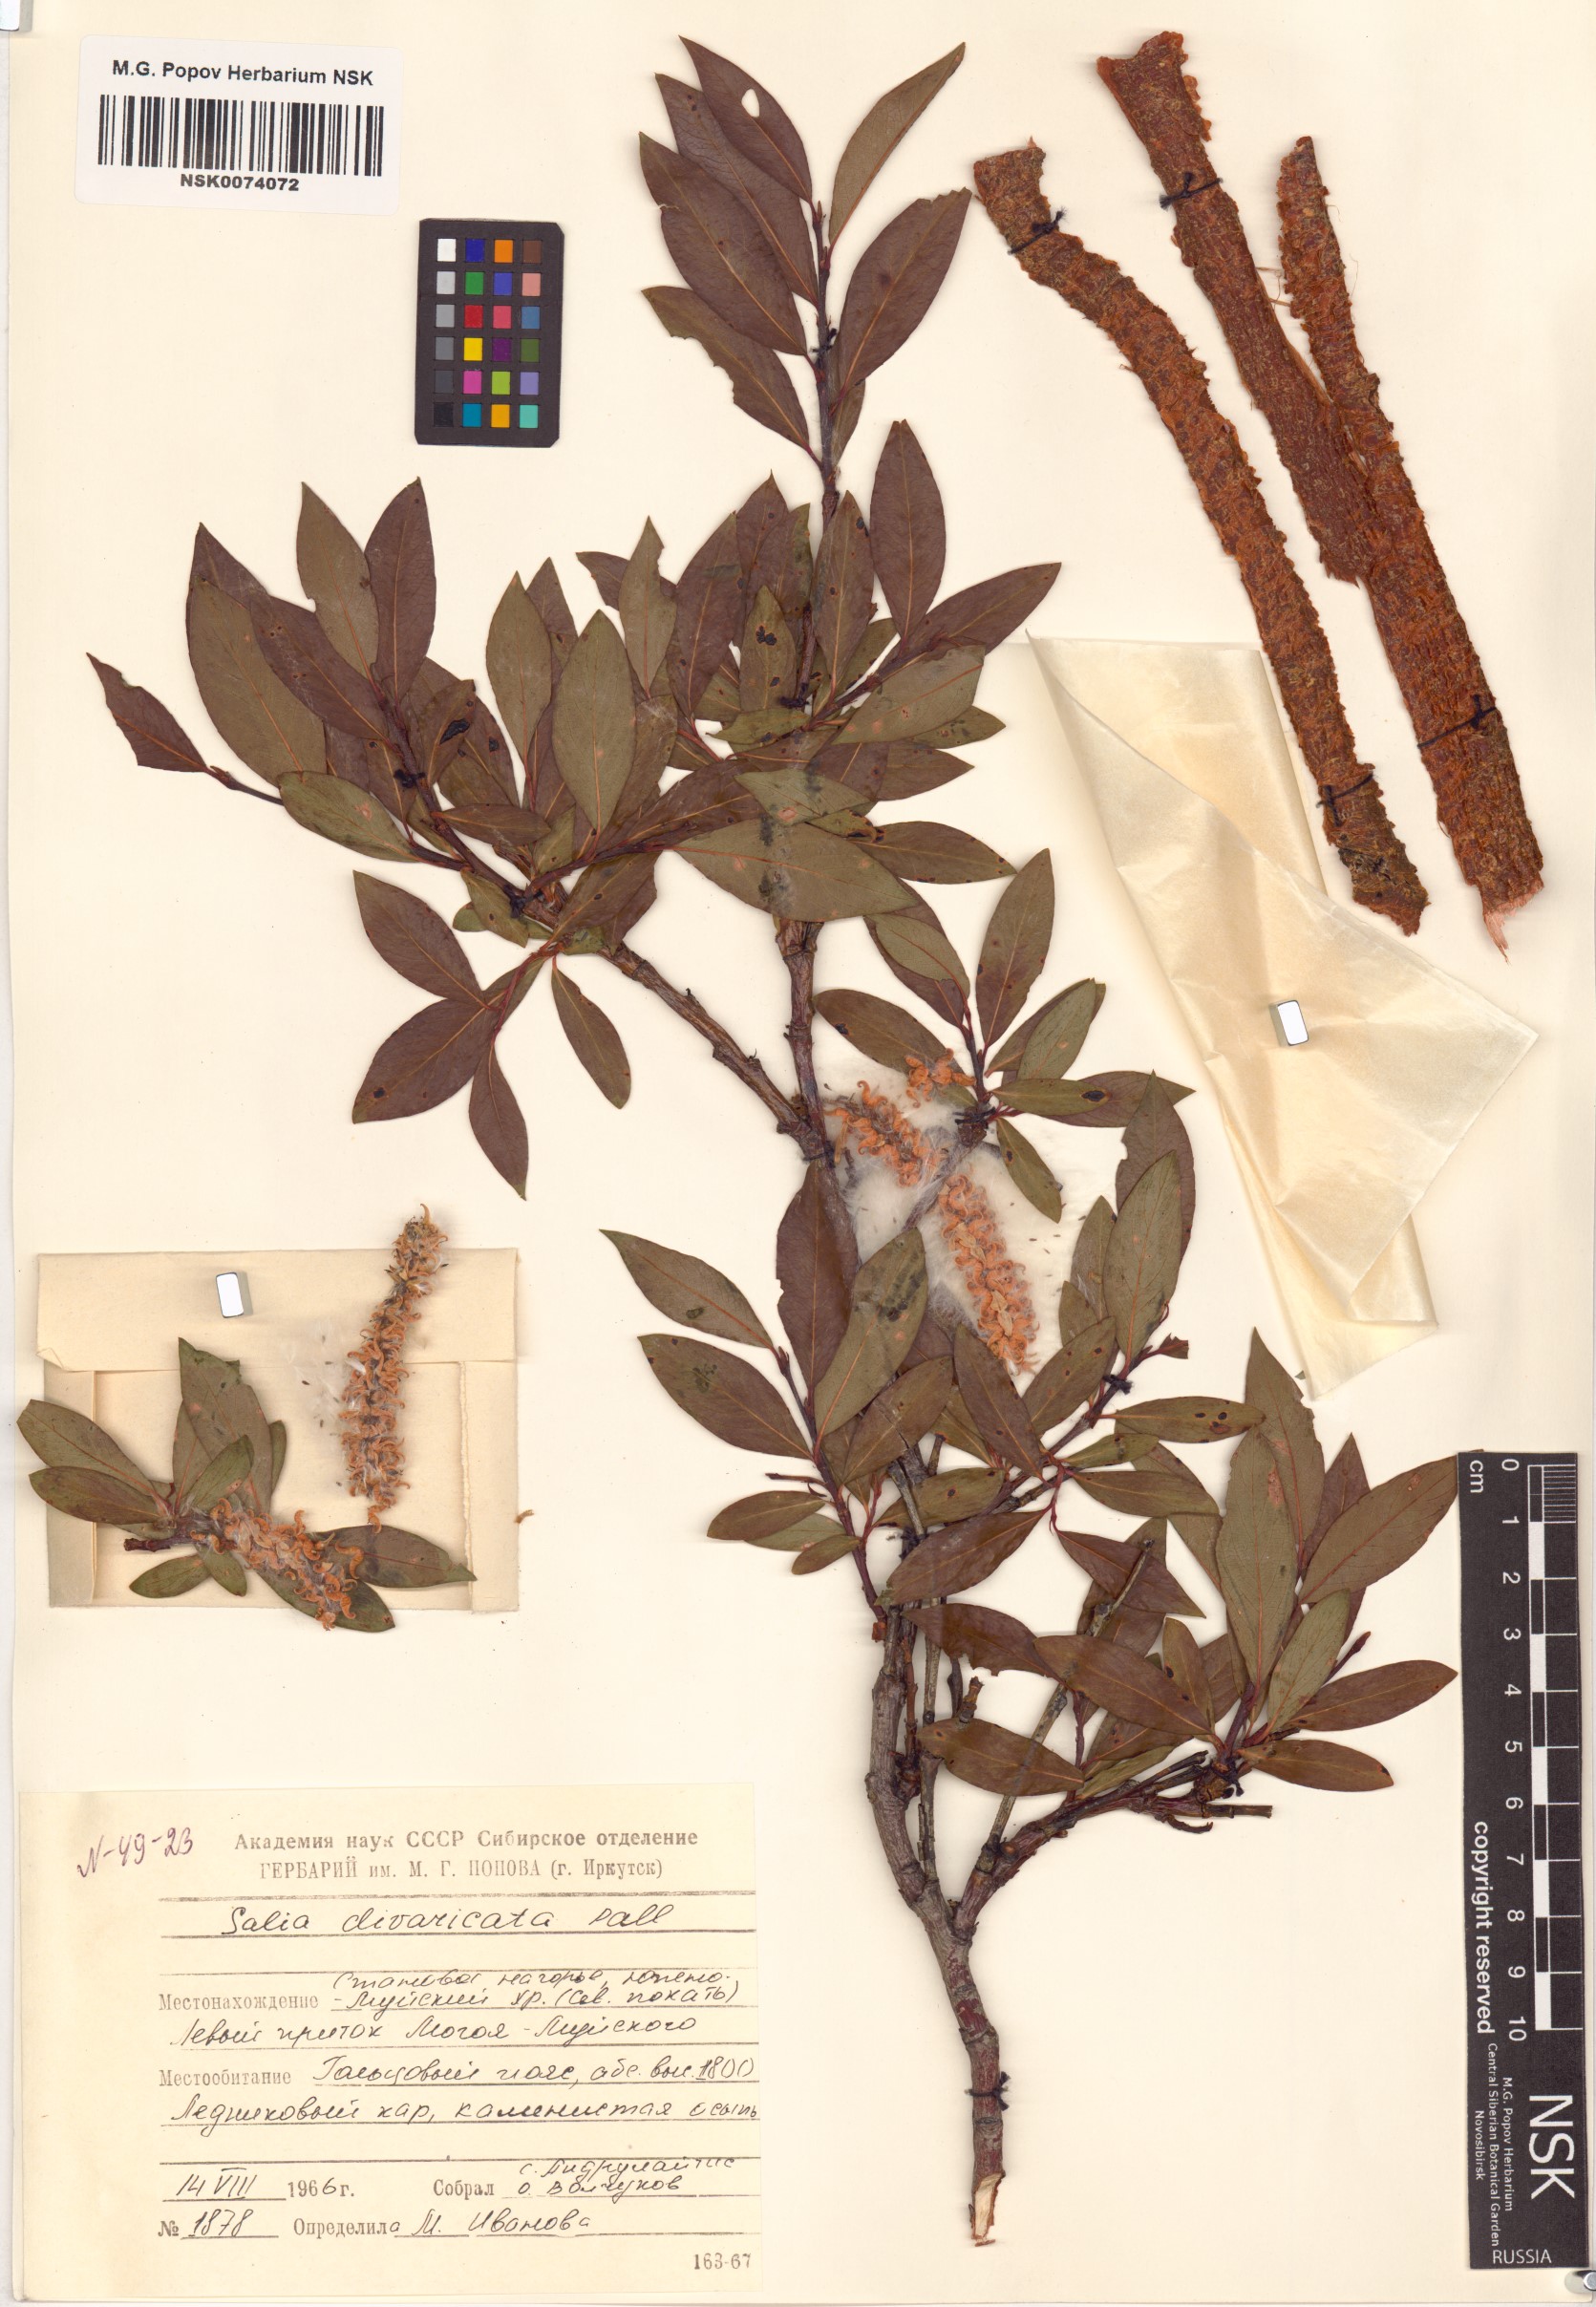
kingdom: Plantae
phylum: Tracheophyta
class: Magnoliopsida
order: Malpighiales
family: Salicaceae
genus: Salix
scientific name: Salix divaricata
